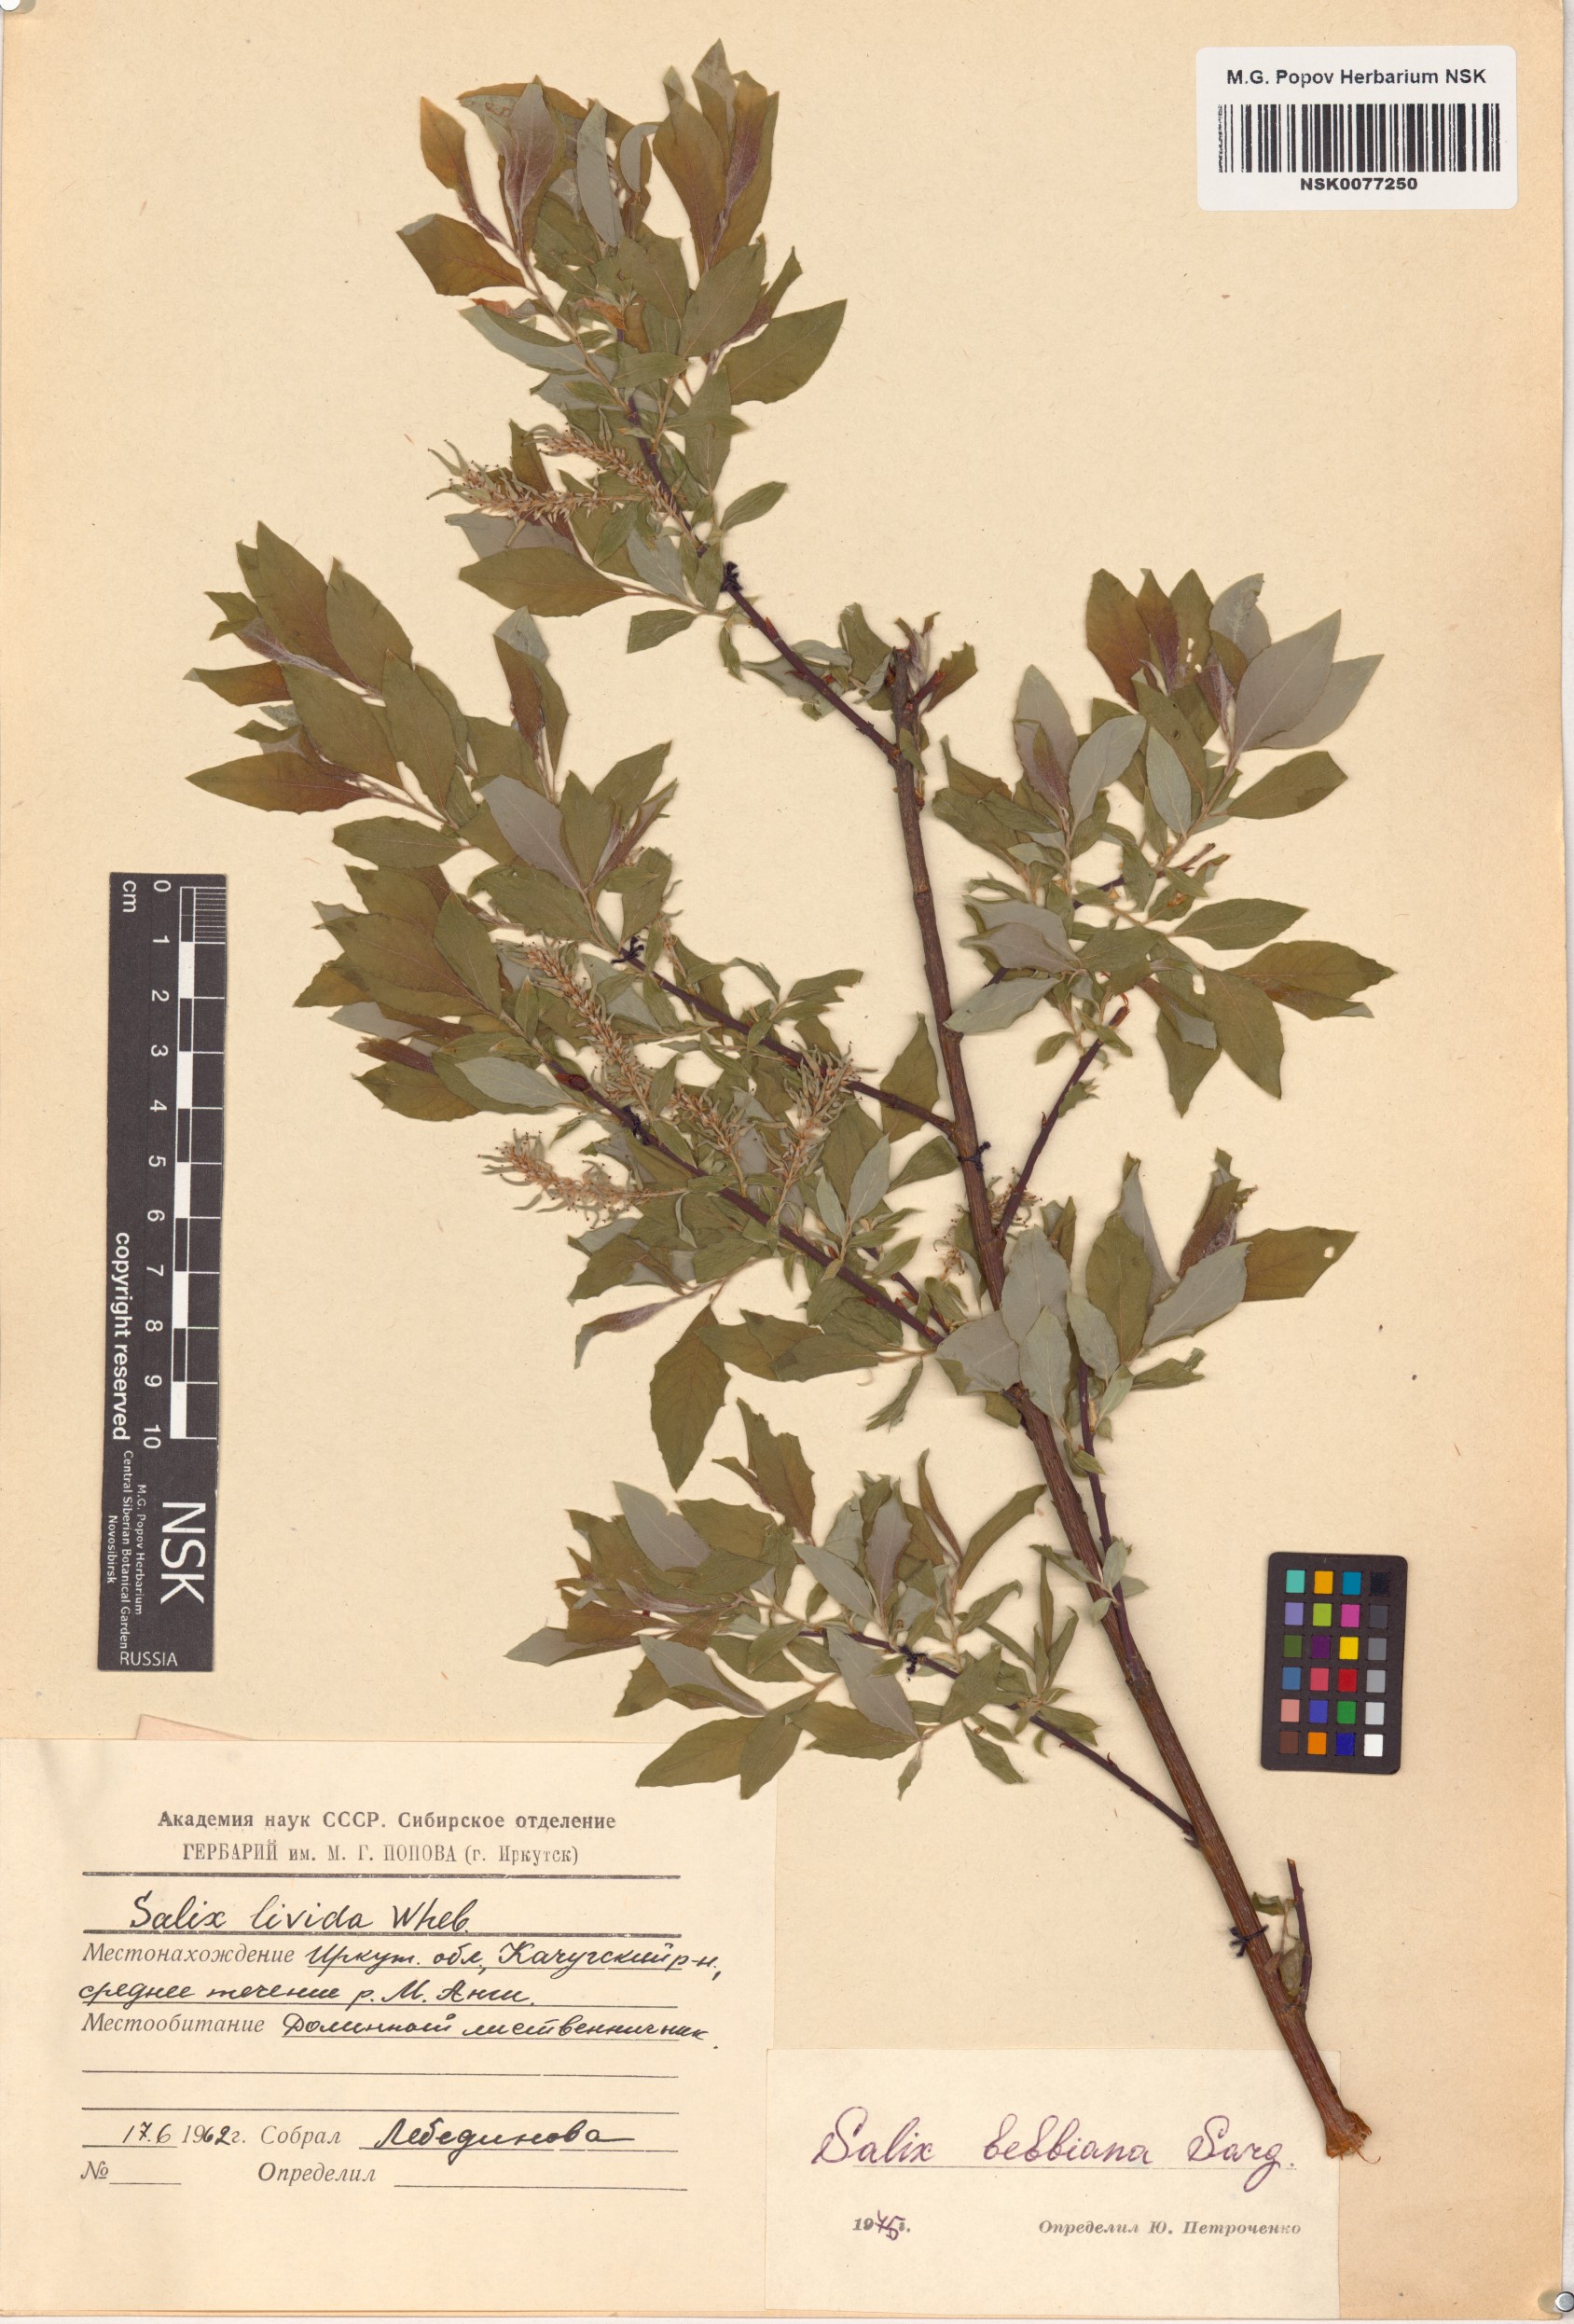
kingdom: Plantae
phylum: Tracheophyta
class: Magnoliopsida
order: Malpighiales
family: Salicaceae
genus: Salix
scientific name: Salix bebbiana
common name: Bebb's willow
